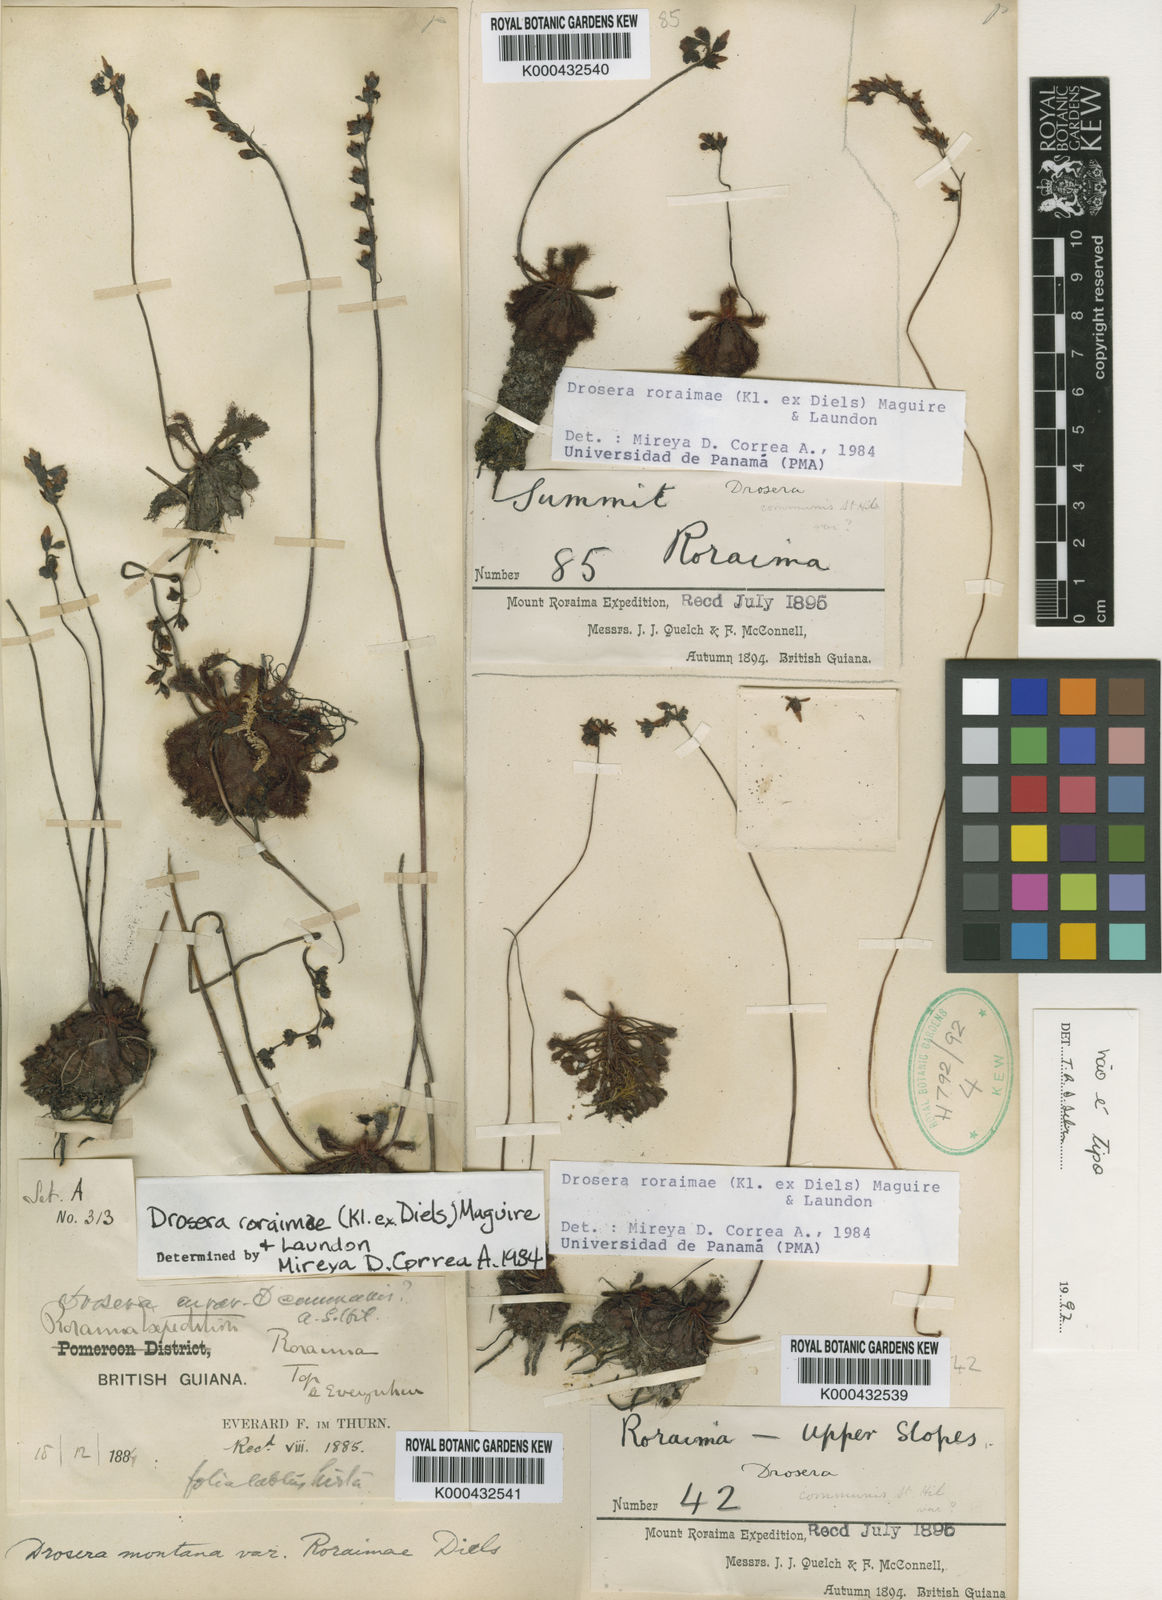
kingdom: Plantae
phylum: Tracheophyta
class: Magnoliopsida
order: Caryophyllales
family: Droseraceae
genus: Drosera
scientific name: Drosera roraimae
